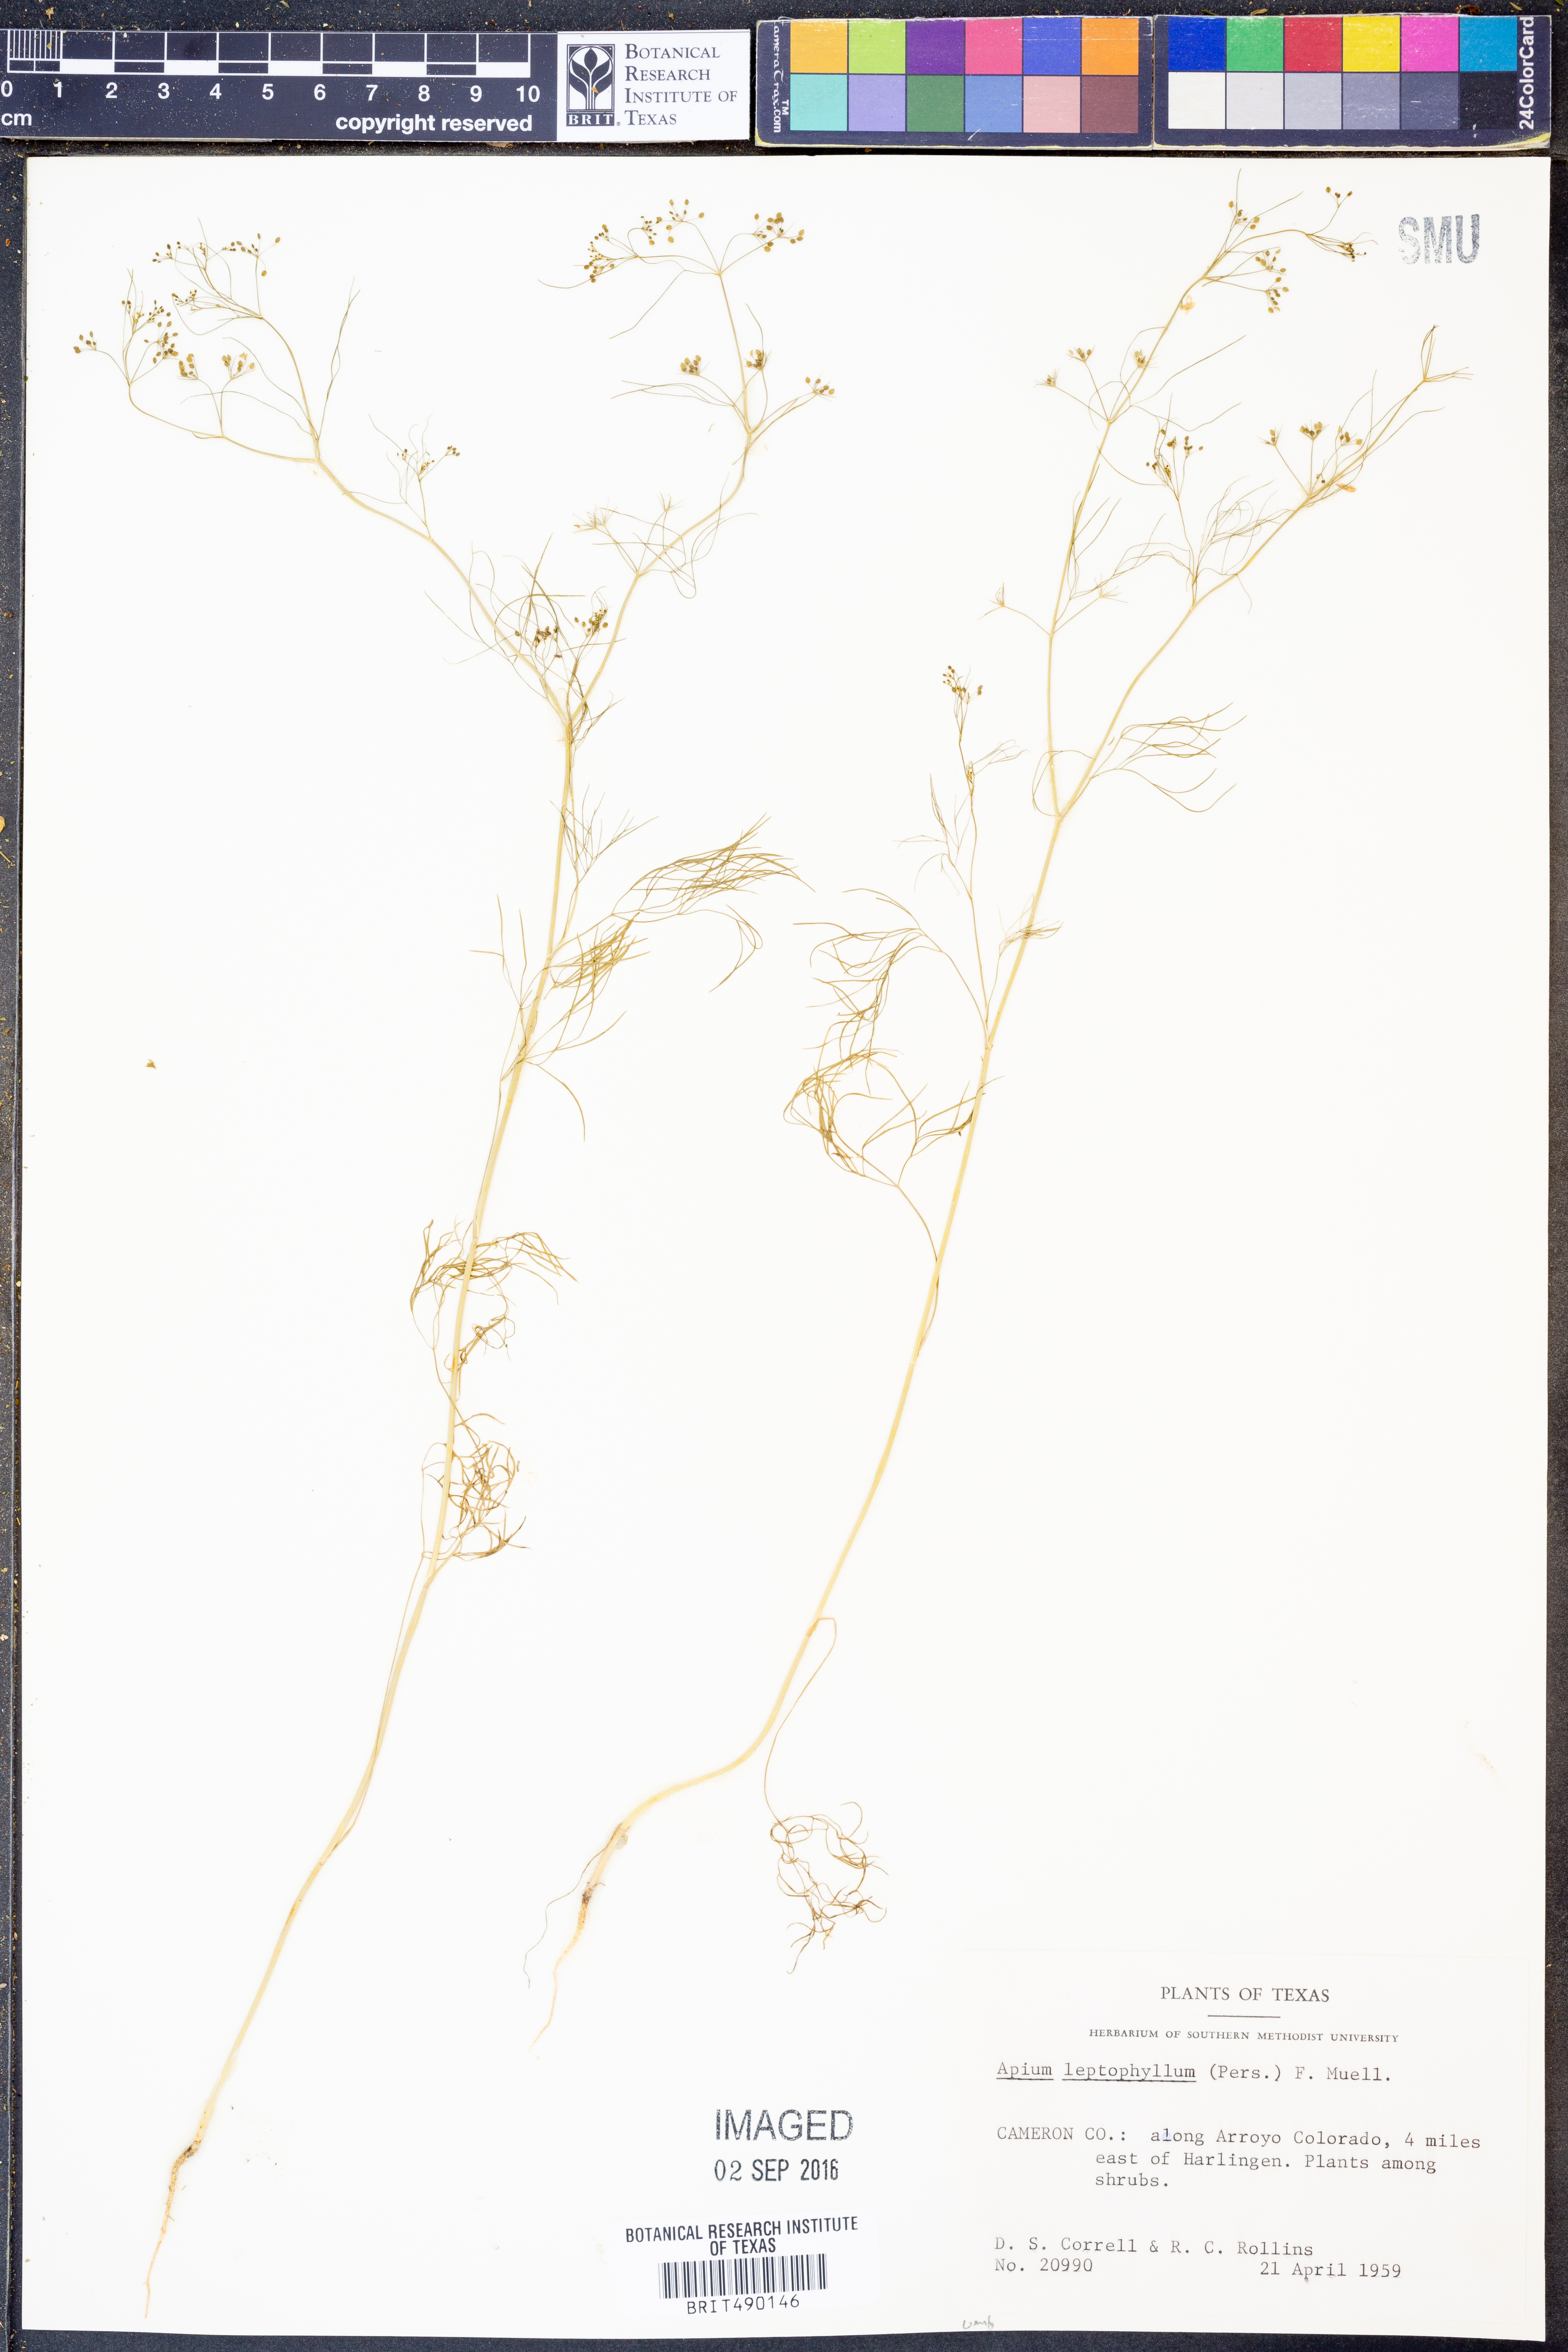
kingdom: Plantae
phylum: Tracheophyta
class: Magnoliopsida
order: Apiales
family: Apiaceae
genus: Cyclospermum
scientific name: Cyclospermum leptophyllum
